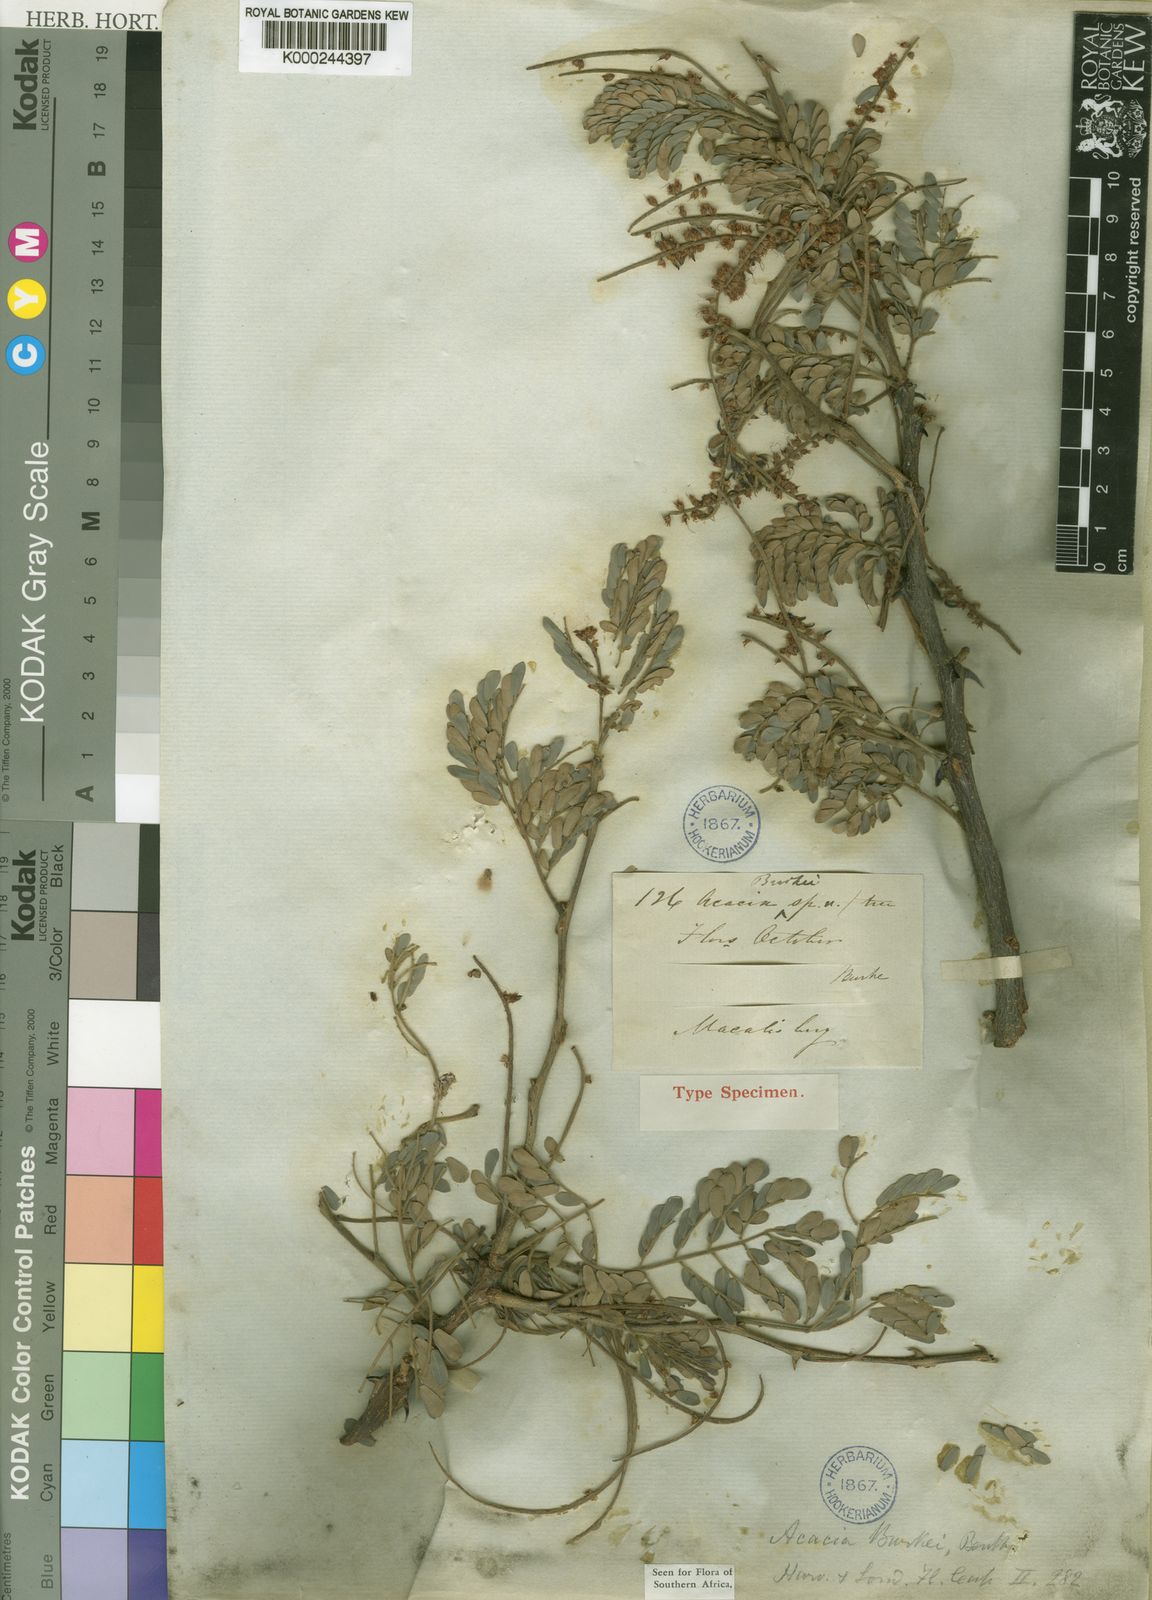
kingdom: Plantae
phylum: Tracheophyta
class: Magnoliopsida
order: Fabales
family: Fabaceae
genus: Senegalia
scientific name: Senegalia burkei
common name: Black monkey thorn
